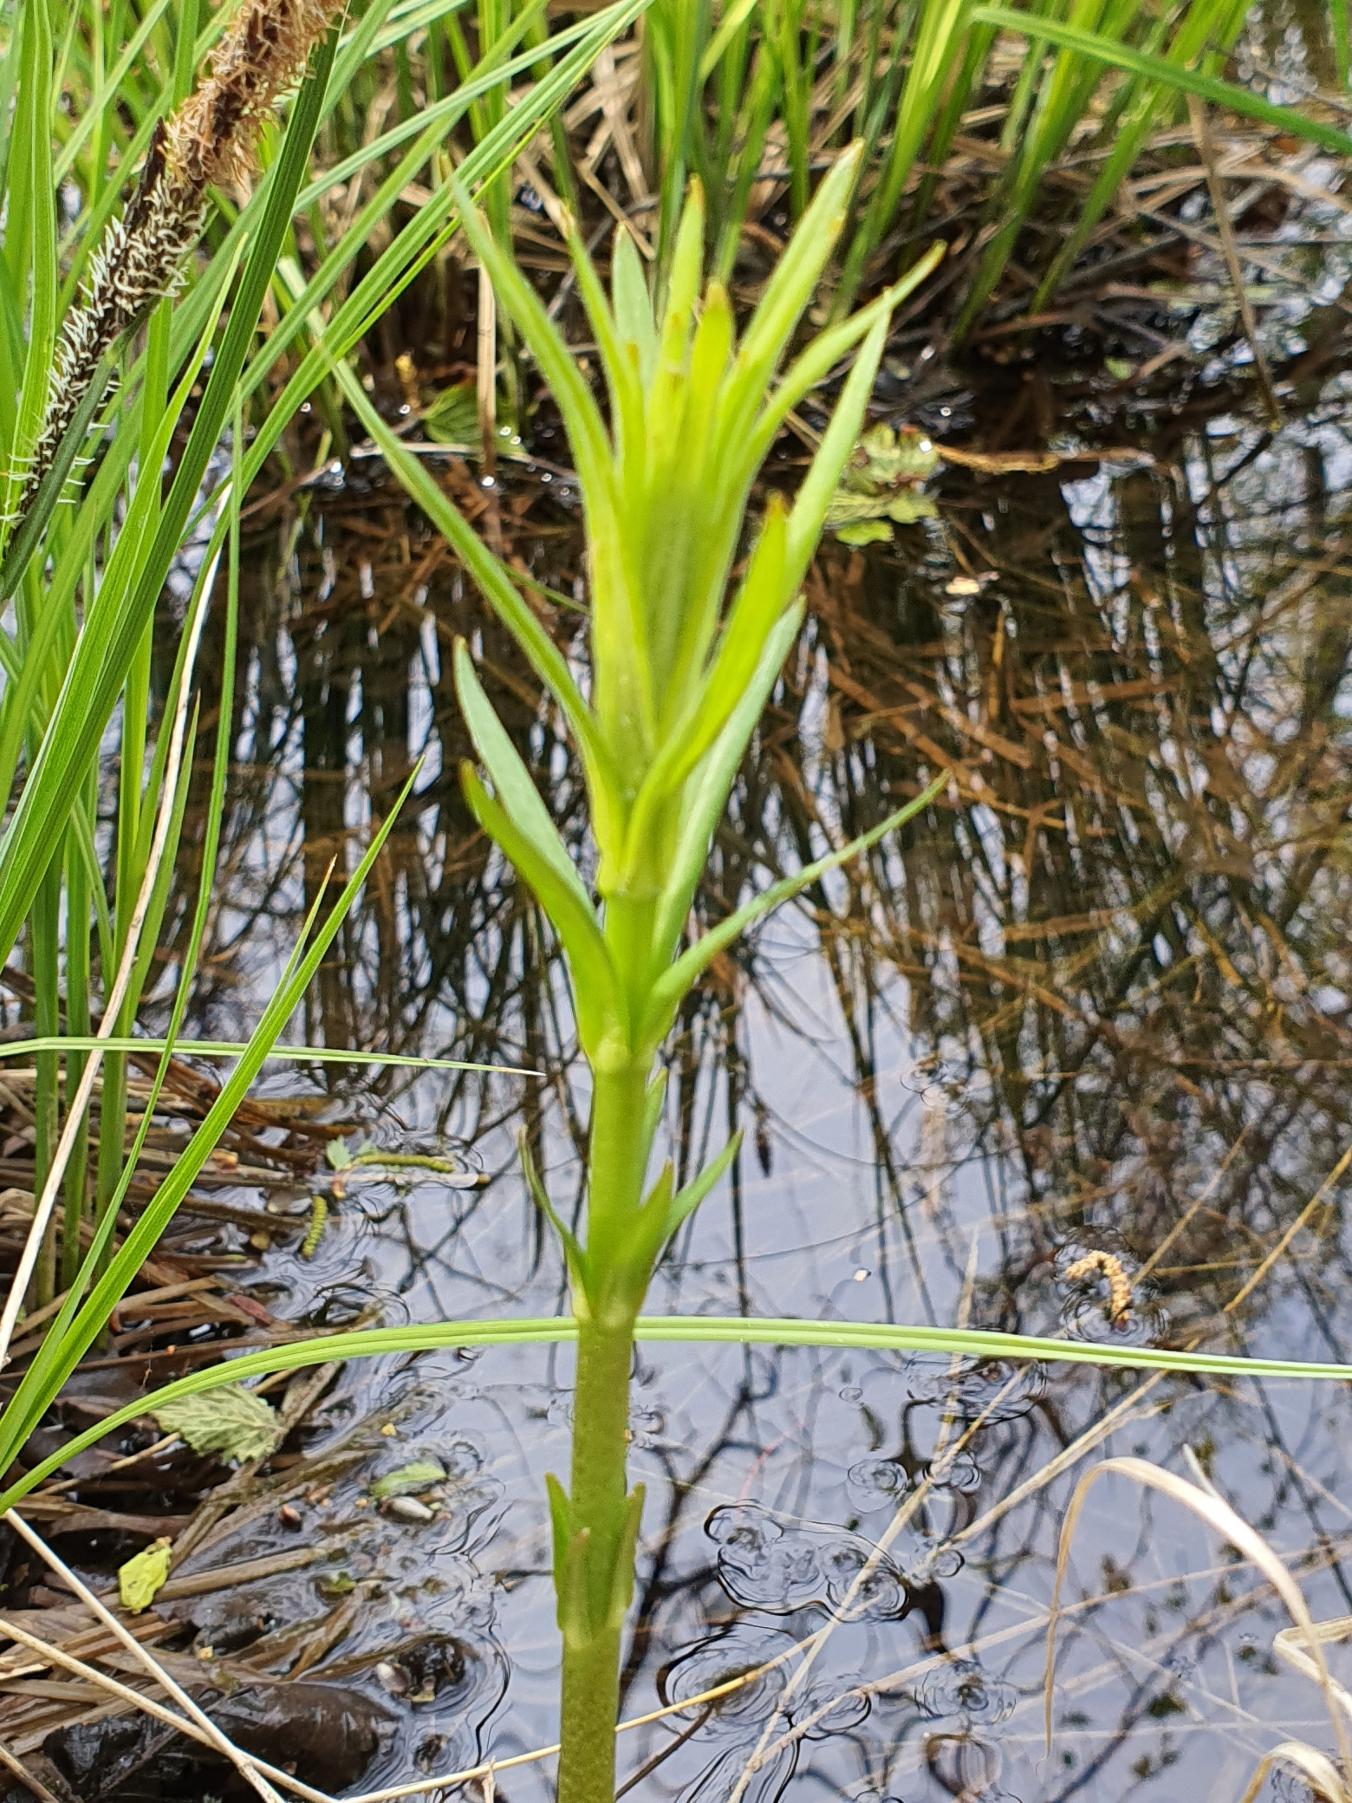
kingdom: Plantae
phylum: Tracheophyta
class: Magnoliopsida
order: Ericales
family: Primulaceae
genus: Lysimachia
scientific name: Lysimachia thyrsiflora
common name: Dusk-fredløs
